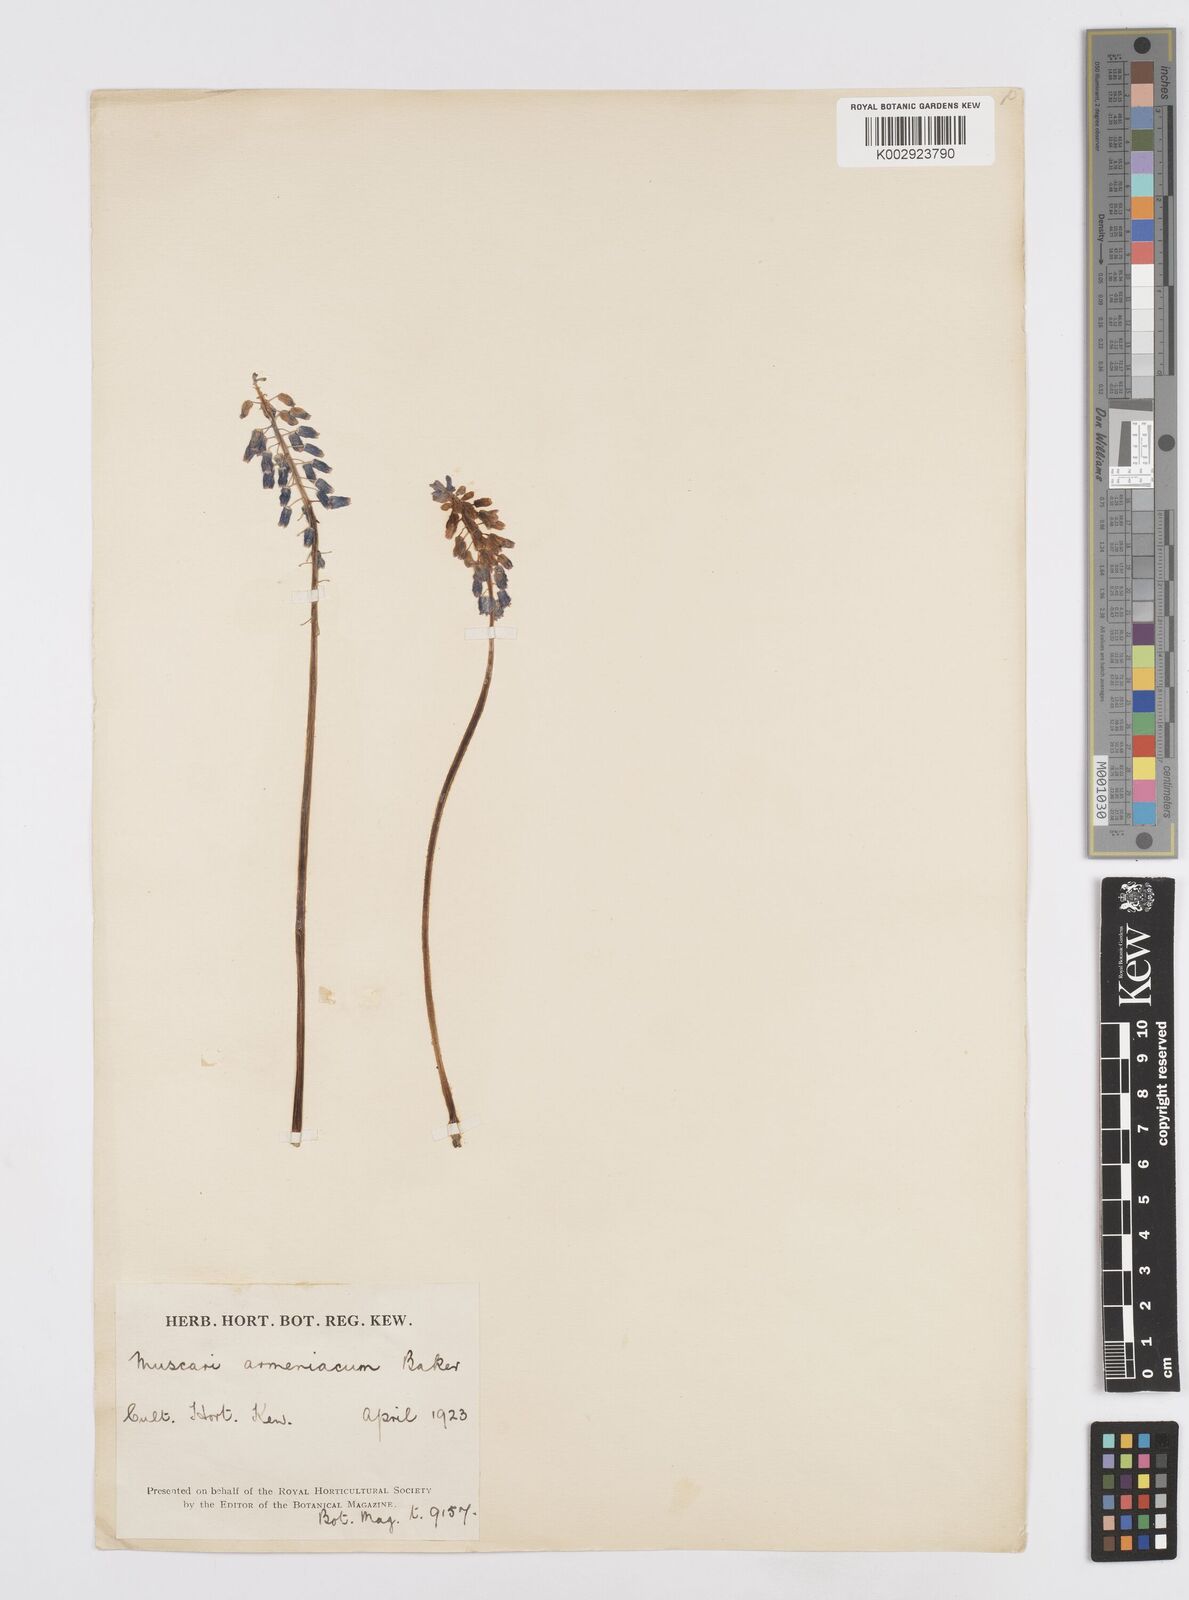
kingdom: Plantae
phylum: Tracheophyta
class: Liliopsida
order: Asparagales
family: Asparagaceae
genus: Muscari
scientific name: Muscari
